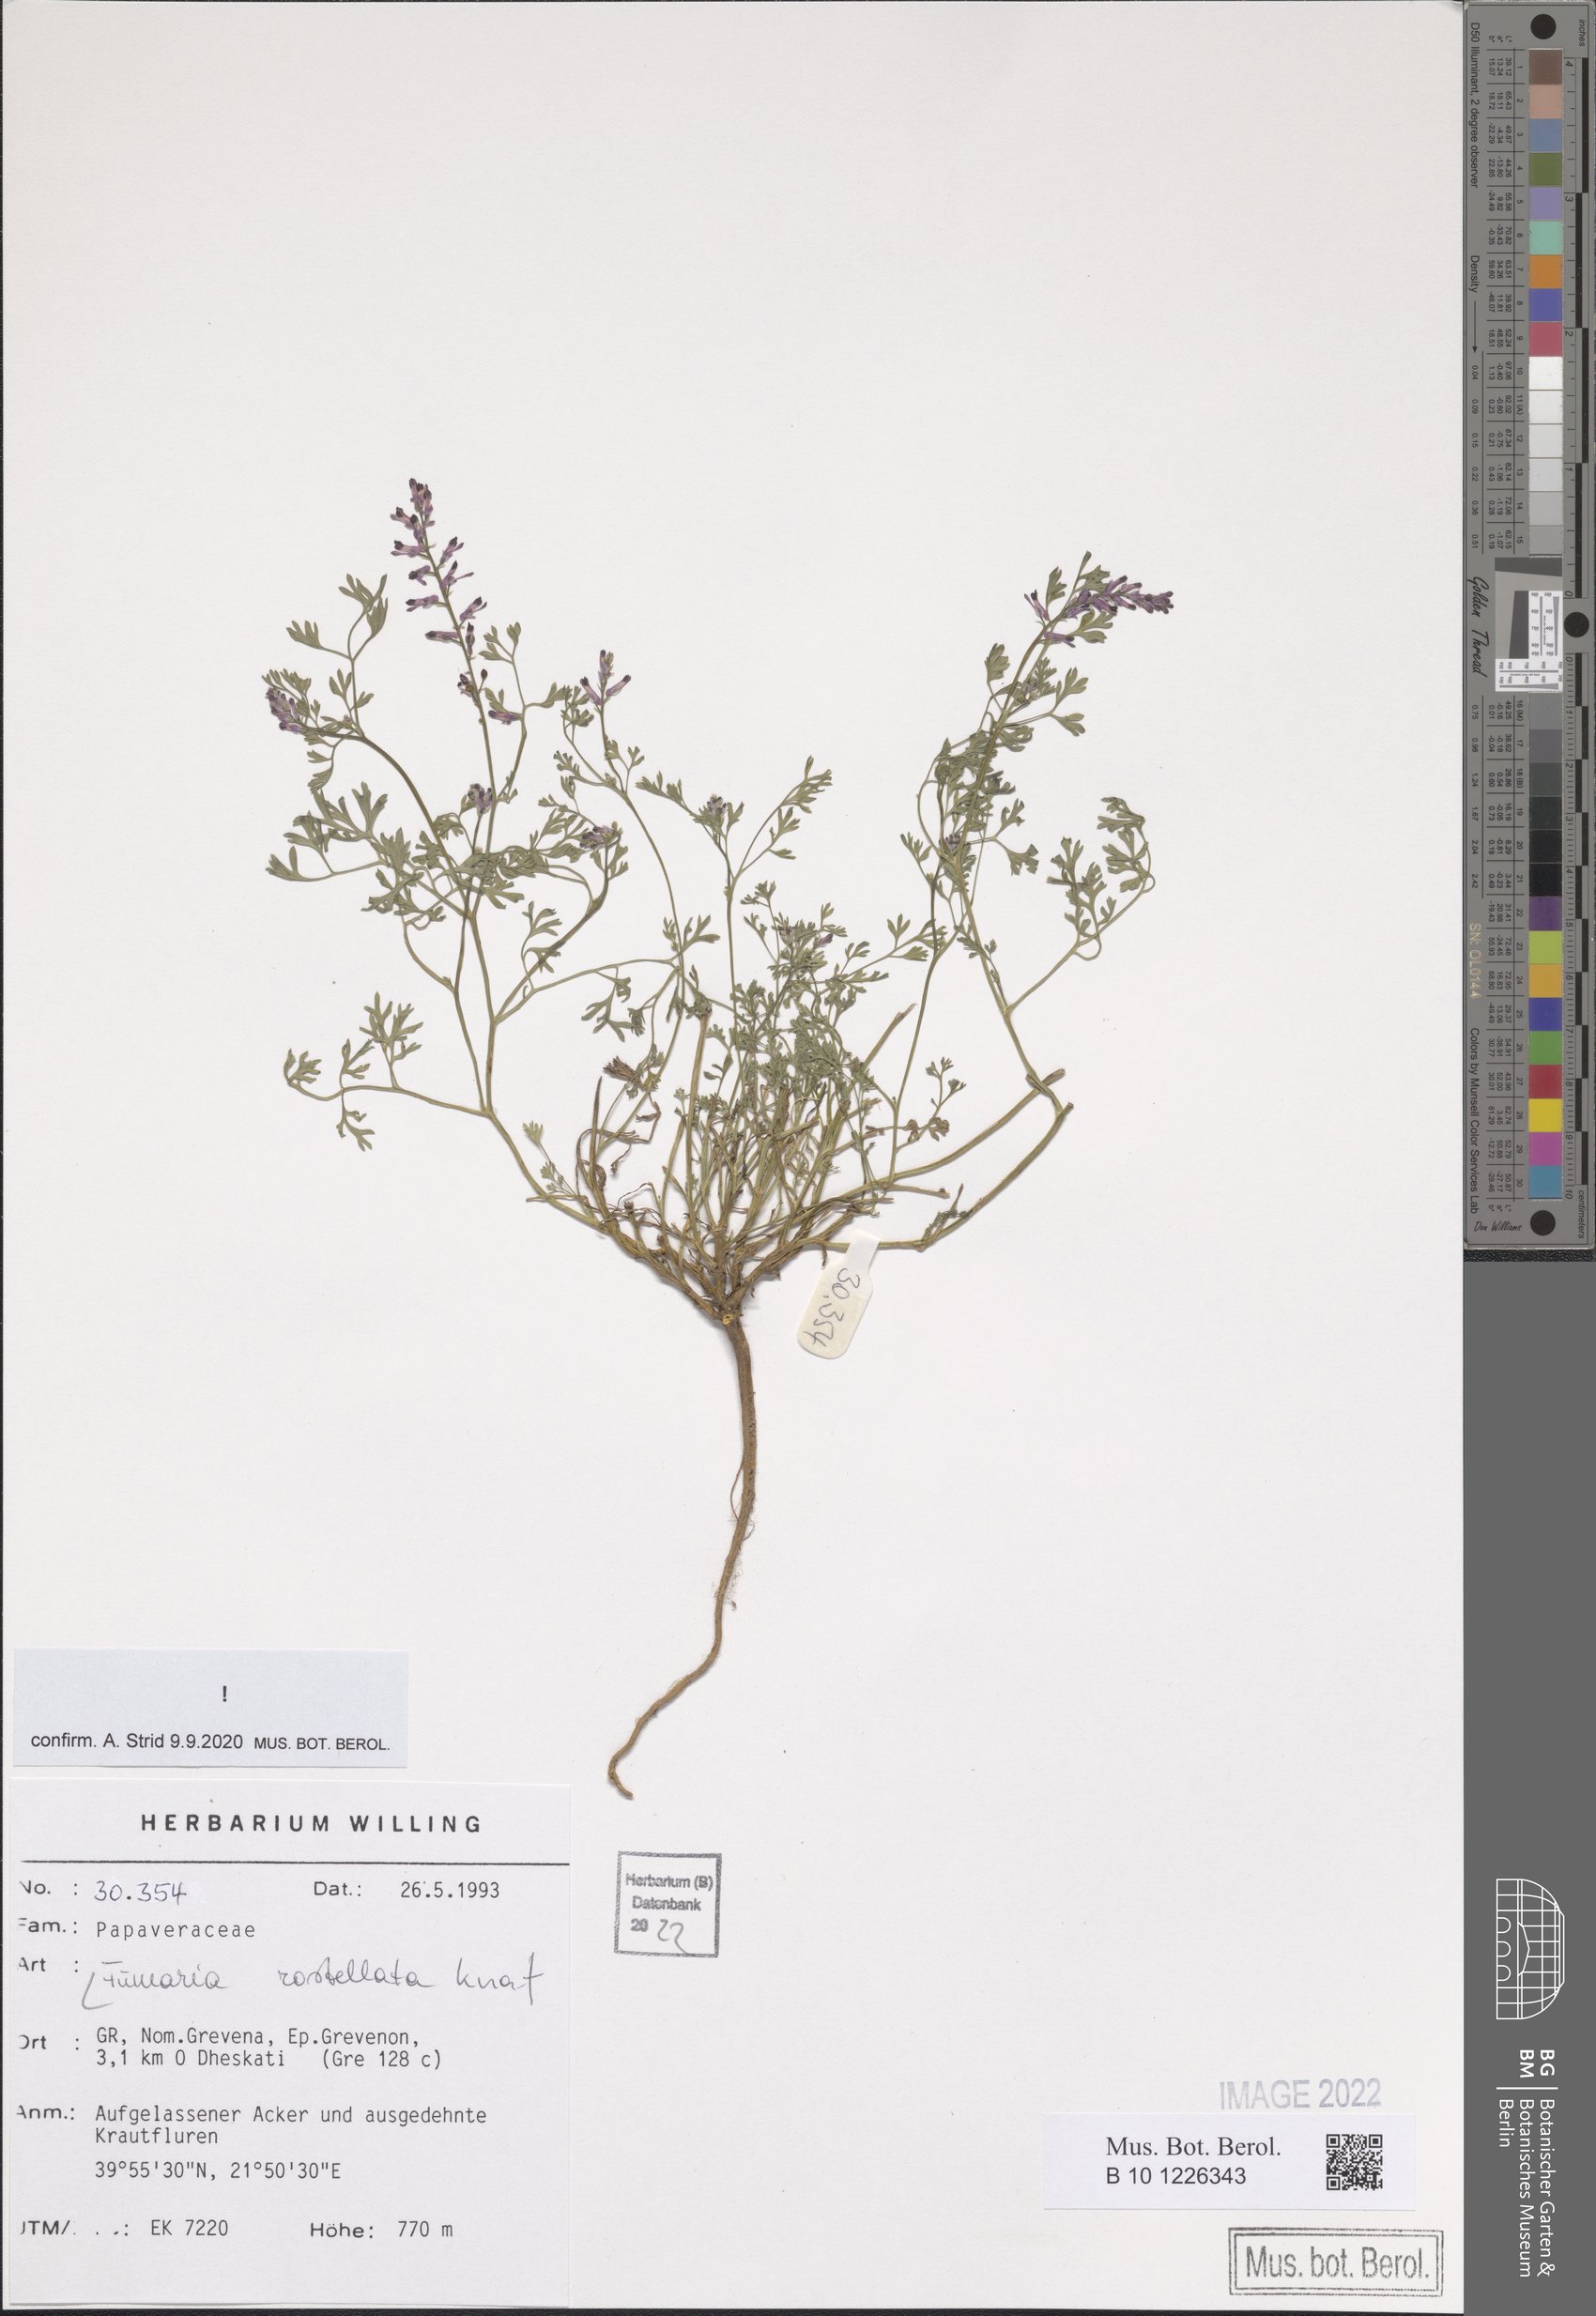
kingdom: Plantae
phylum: Tracheophyta
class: Magnoliopsida
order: Ranunculales
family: Papaveraceae
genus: Fumaria
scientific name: Fumaria rostellata
